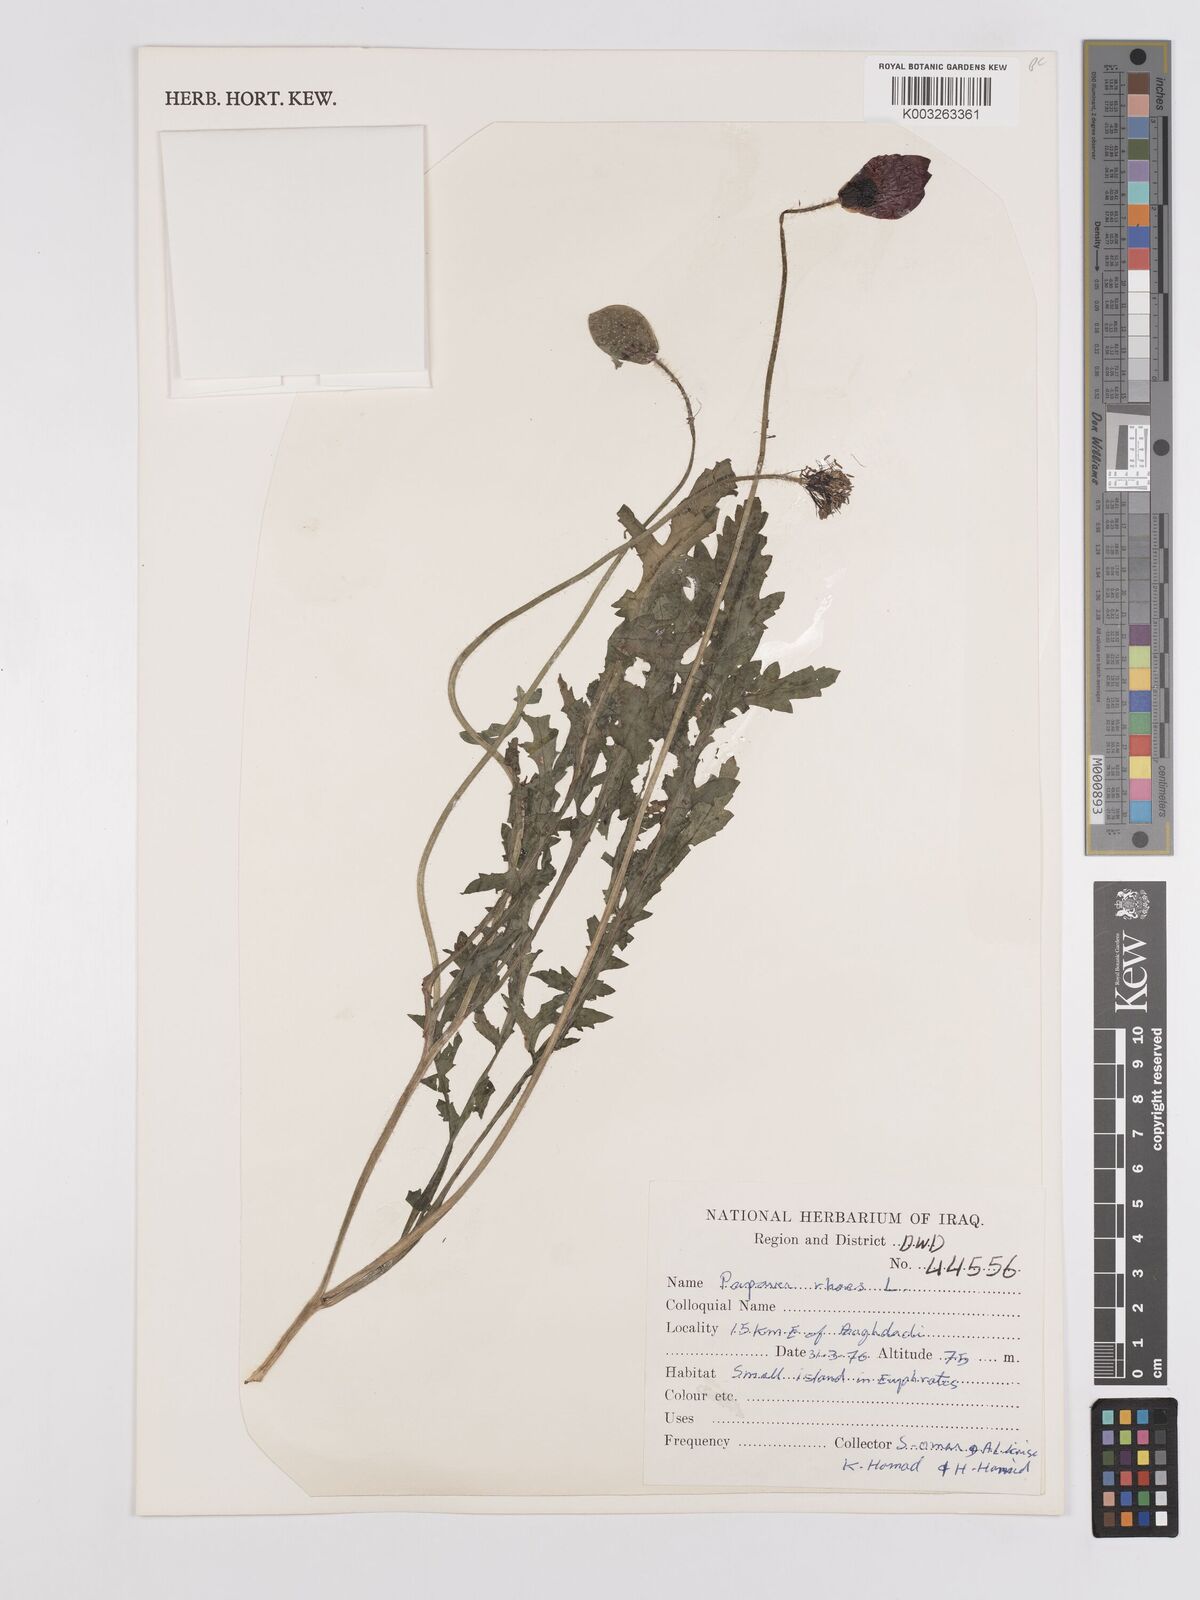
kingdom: Plantae
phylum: Tracheophyta
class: Magnoliopsida
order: Ranunculales
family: Papaveraceae
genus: Papaver
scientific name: Papaver rhoeas
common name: Corn poppy
